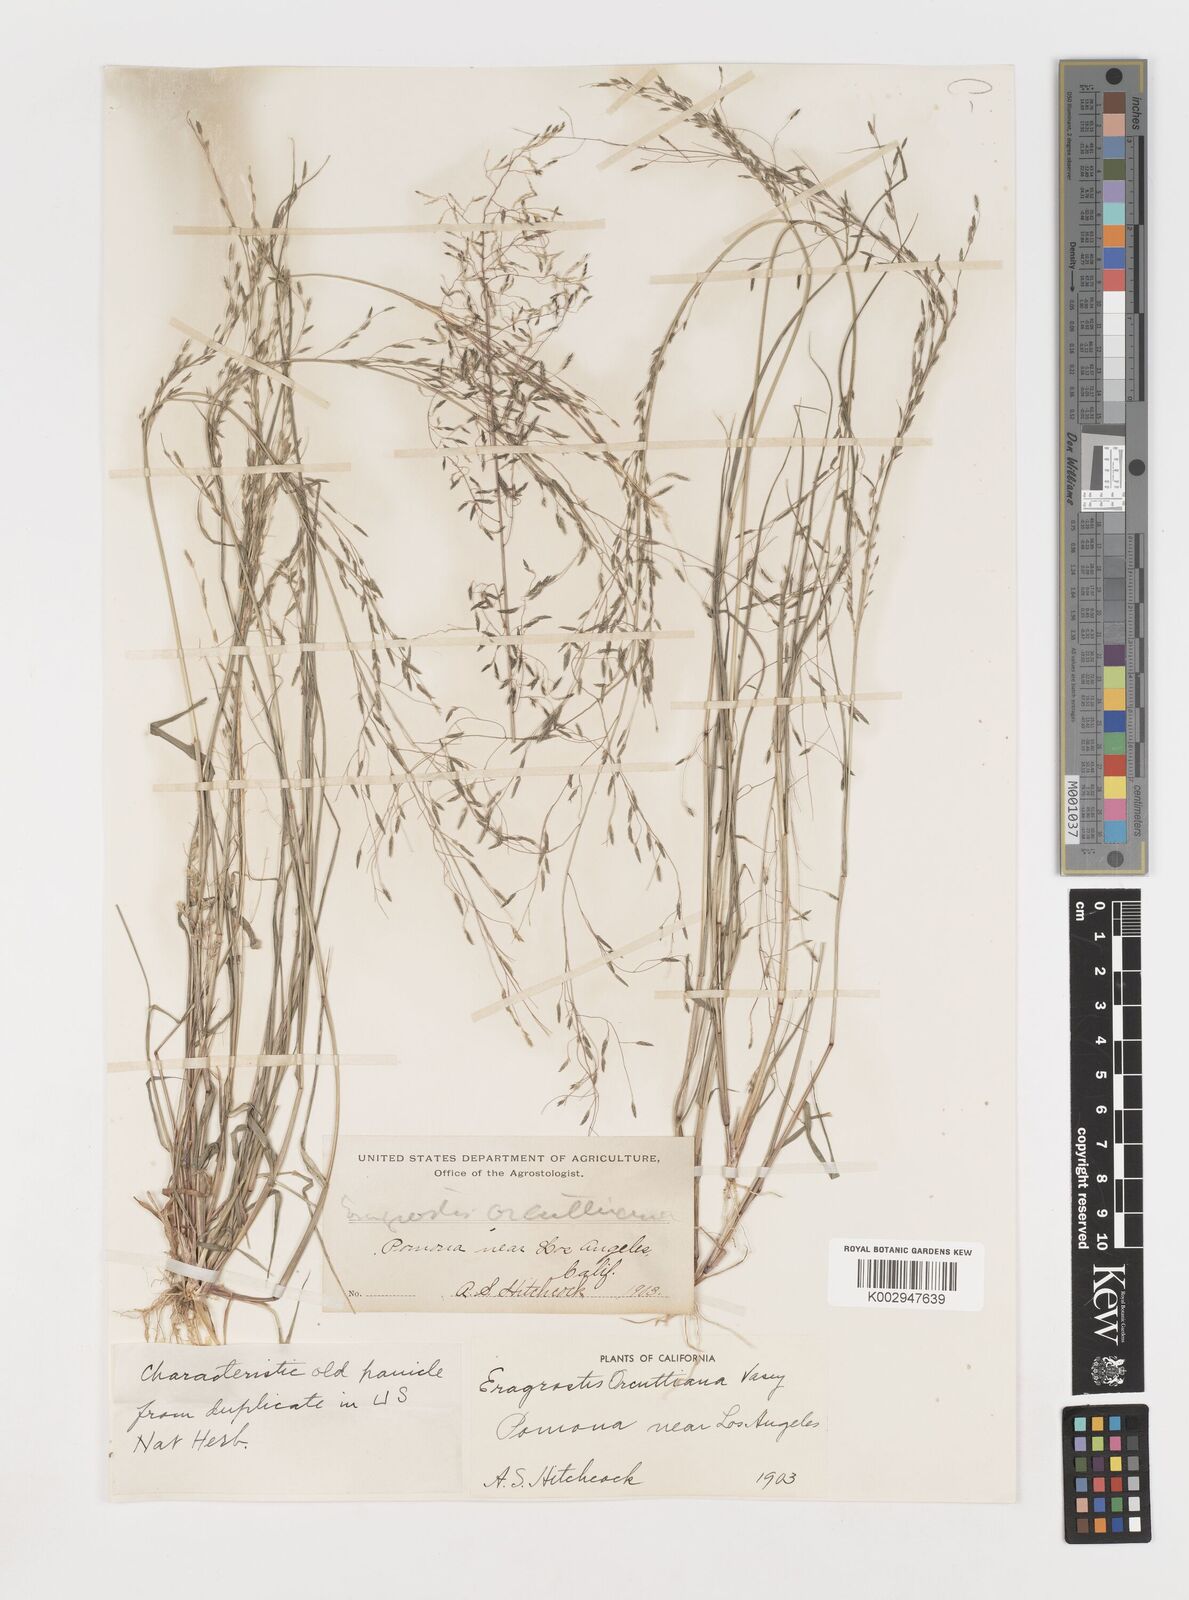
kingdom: Plantae
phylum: Tracheophyta
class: Liliopsida
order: Poales
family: Poaceae
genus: Eragrostis
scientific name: Eragrostis mexicana
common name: Mexican love grass
